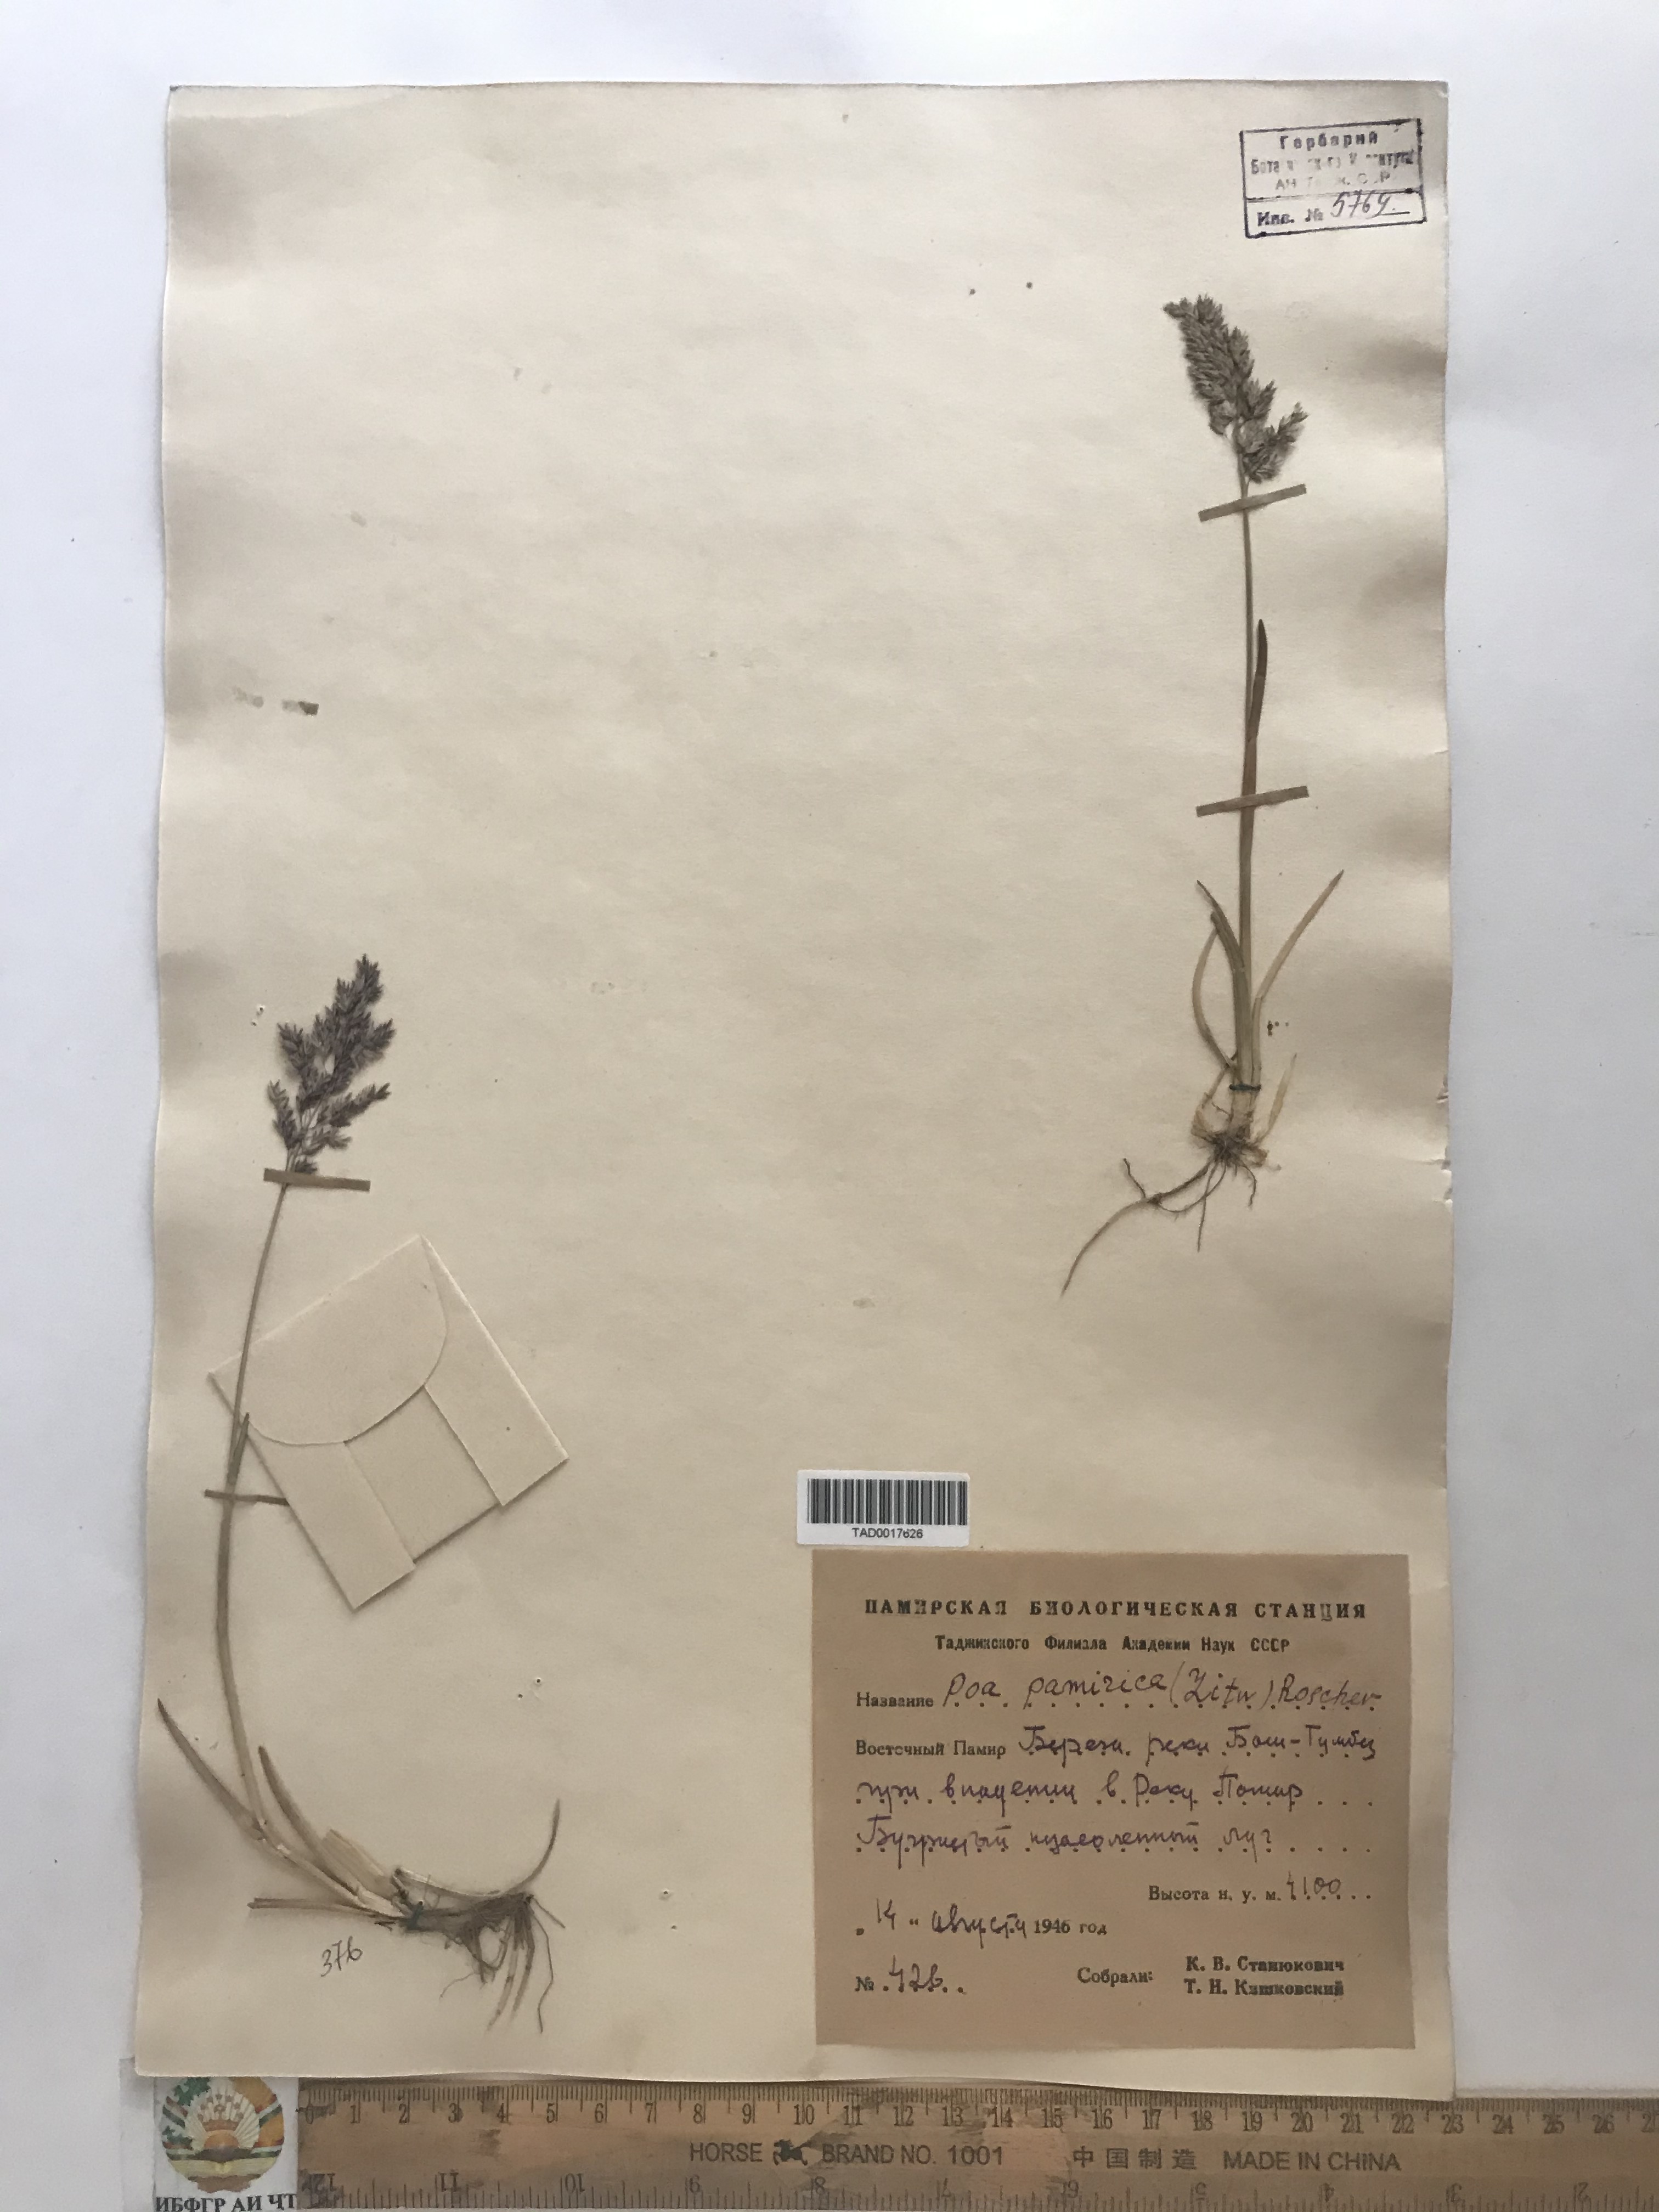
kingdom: Plantae
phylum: Tracheophyta
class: Liliopsida
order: Poales
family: Poaceae
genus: Poa
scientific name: Poa tianschanica
